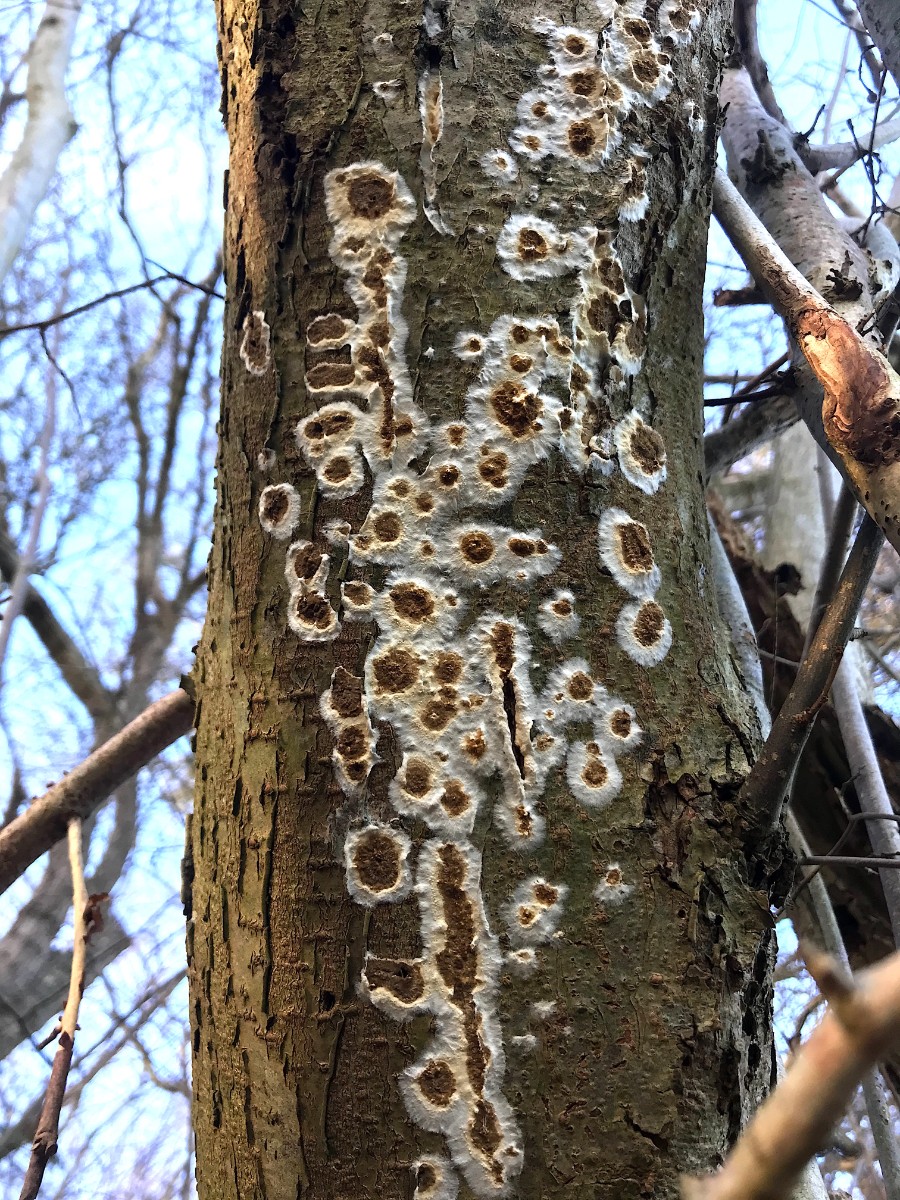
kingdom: Fungi
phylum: Basidiomycota
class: Agaricomycetes
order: Boletales
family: Coniophoraceae
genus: Coniophora
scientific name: Coniophora puteana
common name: gul tømmersvamp
